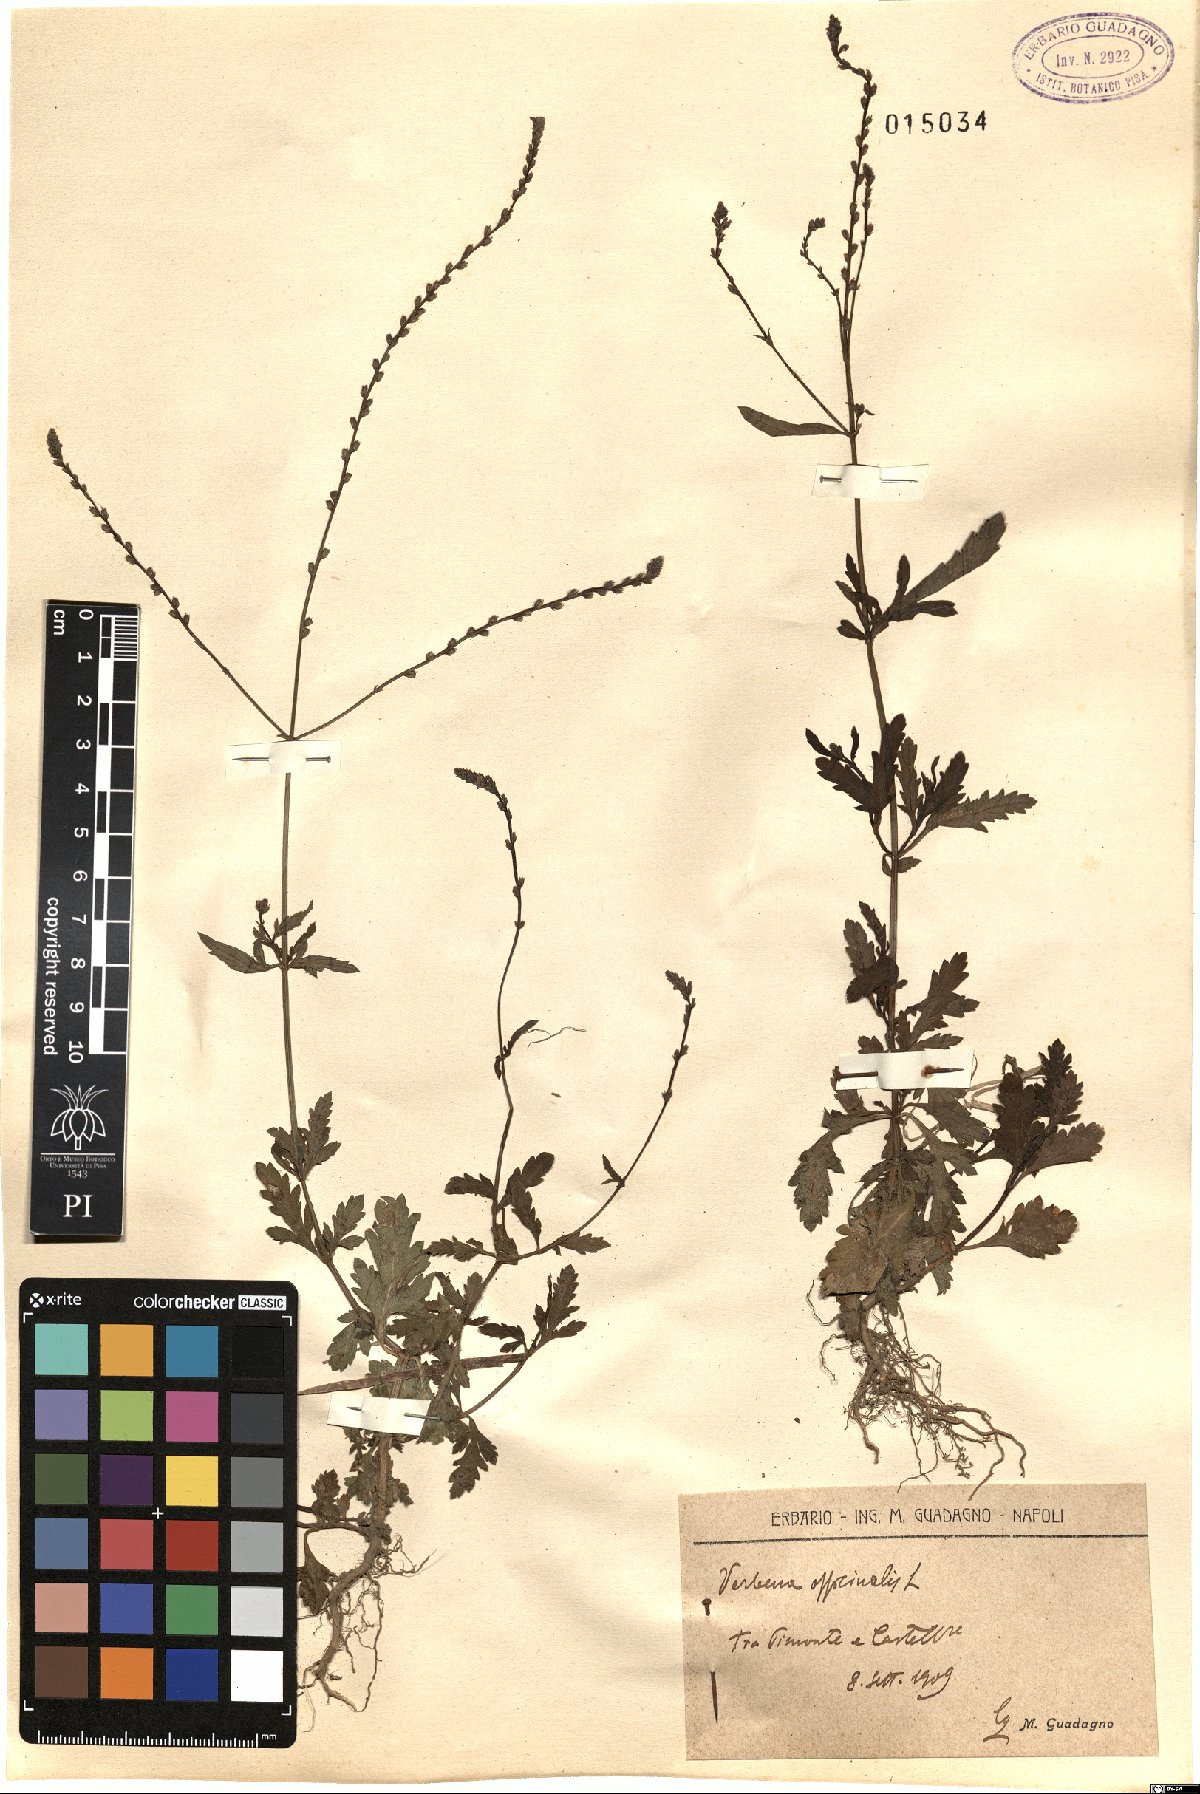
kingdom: Plantae
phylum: Tracheophyta
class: Magnoliopsida
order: Lamiales
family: Verbenaceae
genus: Verbena
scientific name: Verbena officinalis
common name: Vervain
